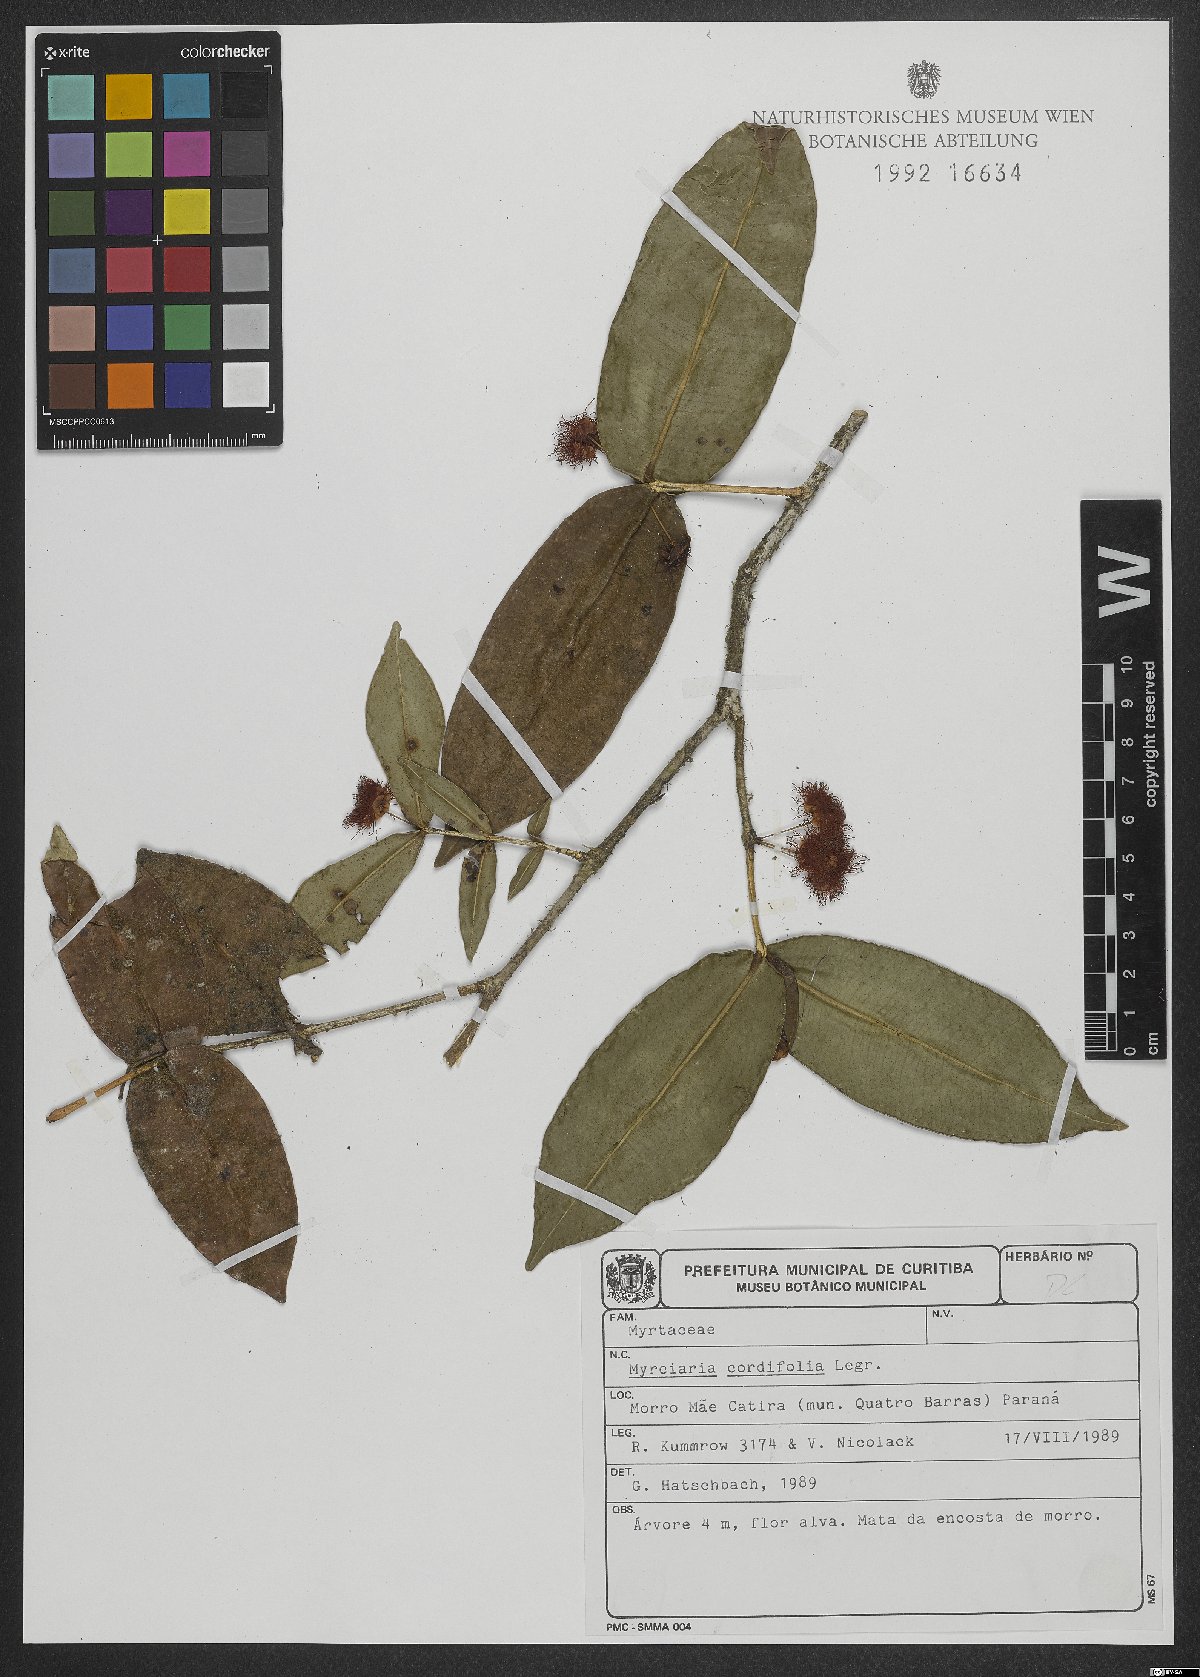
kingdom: Plantae
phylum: Tracheophyta
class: Magnoliopsida
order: Myrtales
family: Myrtaceae
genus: Plinia
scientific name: Plinia cordifolia
